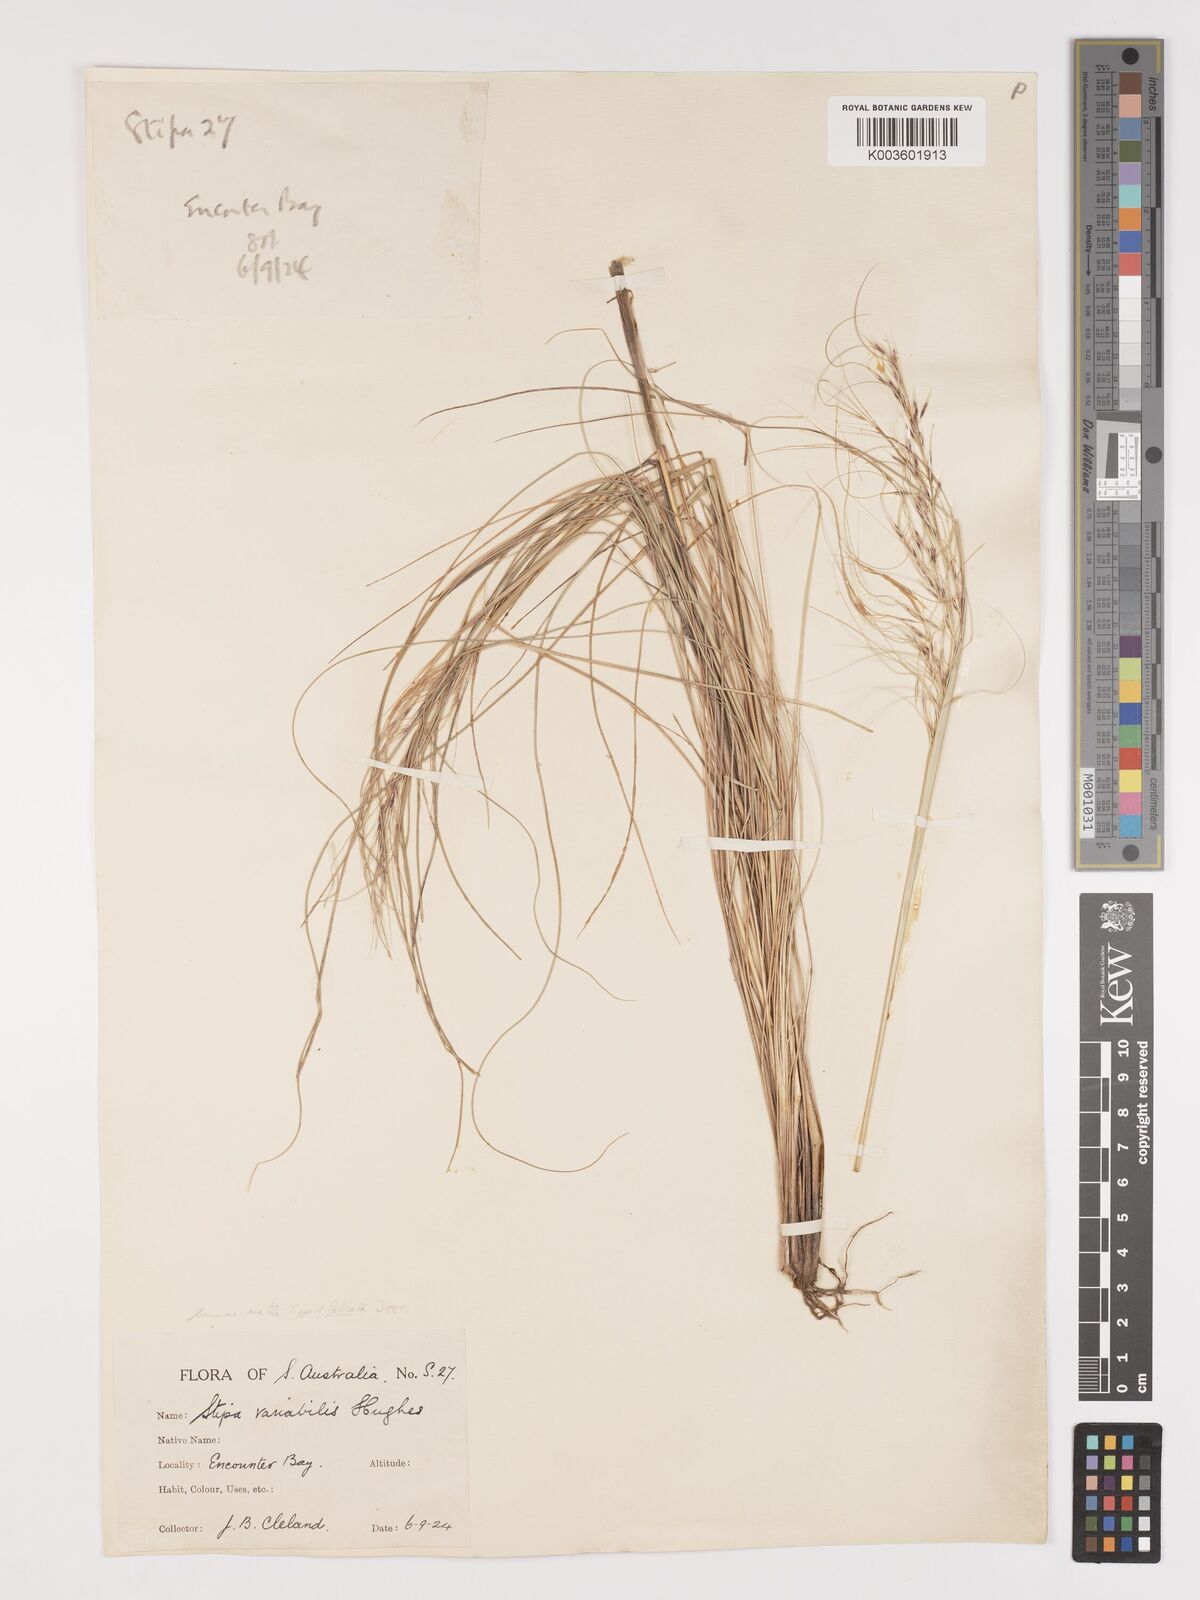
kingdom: Plantae
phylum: Tracheophyta
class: Liliopsida
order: Poales
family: Poaceae
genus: Austrostipa
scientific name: Austrostipa nodosa
